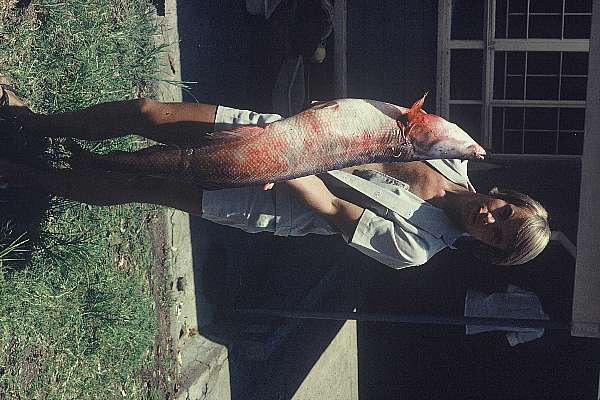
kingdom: Animalia
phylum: Chordata
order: Osteoglossiformes
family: Mormyridae
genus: Mormyrops
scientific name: Mormyrops anguilloides
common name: Cornish jack
